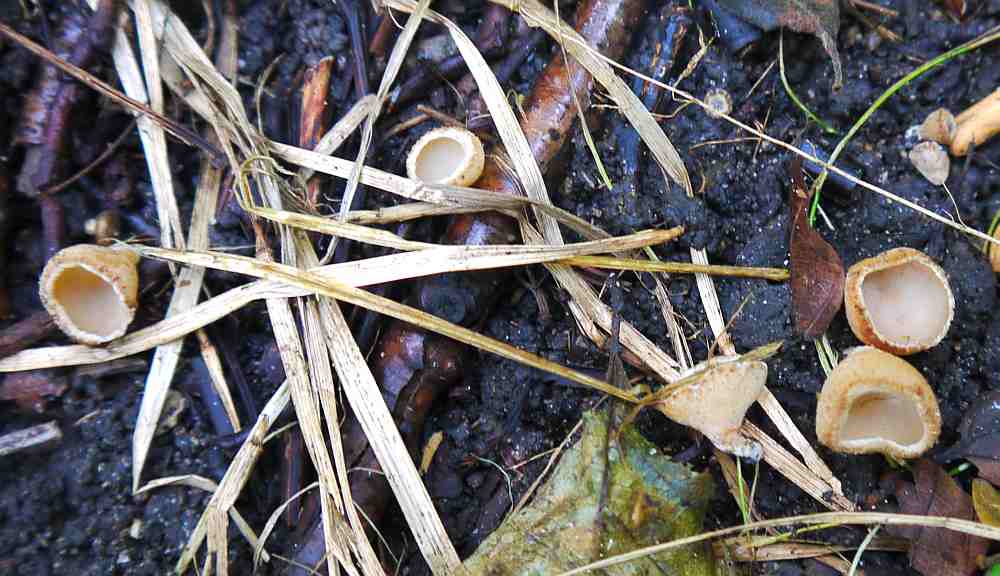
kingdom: Fungi
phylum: Ascomycota
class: Pezizomycetes
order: Pezizales
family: Pyronemataceae
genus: Geopyxis
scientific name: Geopyxis carbonaria
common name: kulbæger
